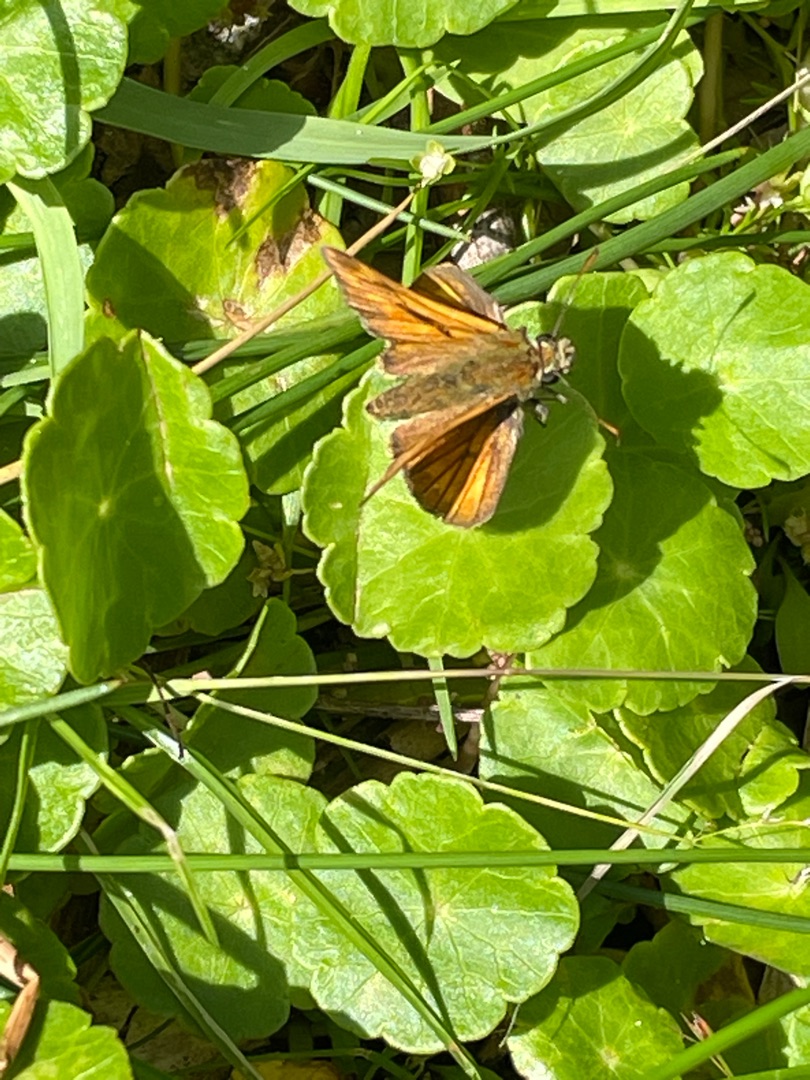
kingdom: Animalia
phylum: Arthropoda
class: Insecta
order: Lepidoptera
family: Hesperiidae
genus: Ochlodes
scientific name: Ochlodes venata
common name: Stor bredpande
